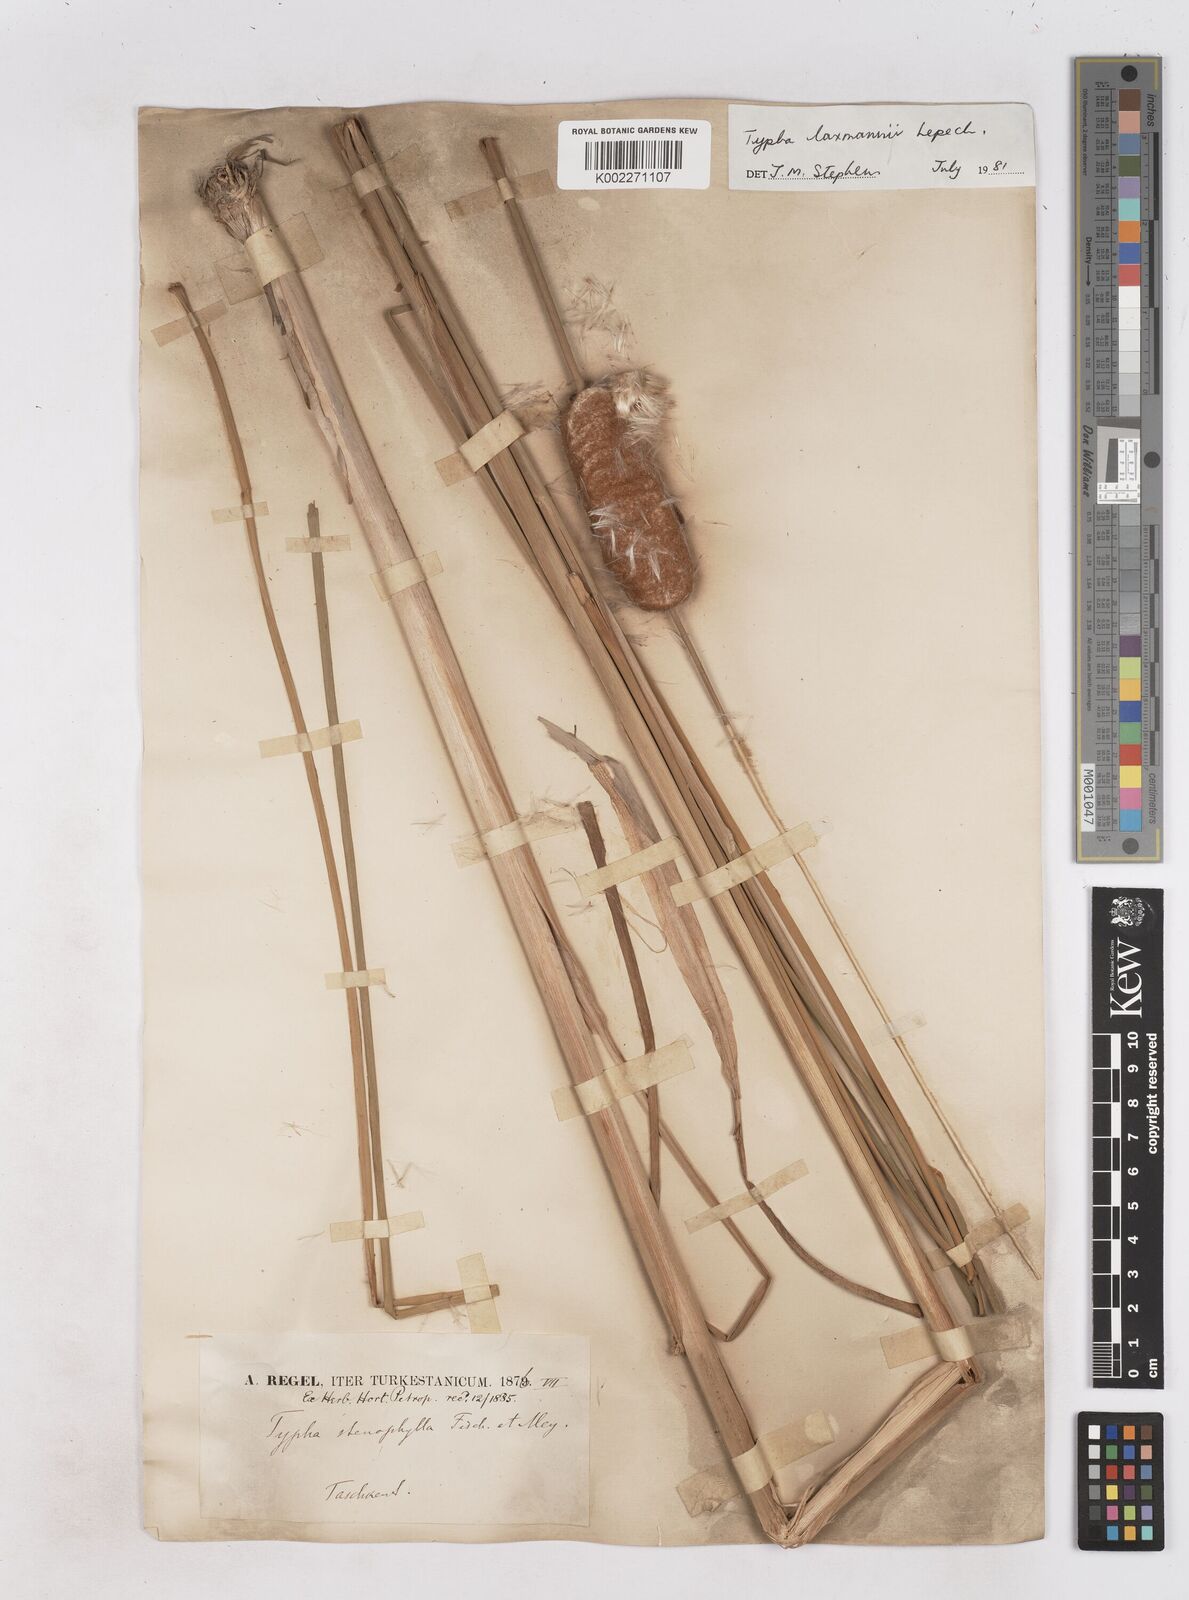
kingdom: Plantae
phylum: Tracheophyta
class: Liliopsida
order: Poales
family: Typhaceae
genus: Typha
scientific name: Typha laxmannii
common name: Laxman’s bulrush
